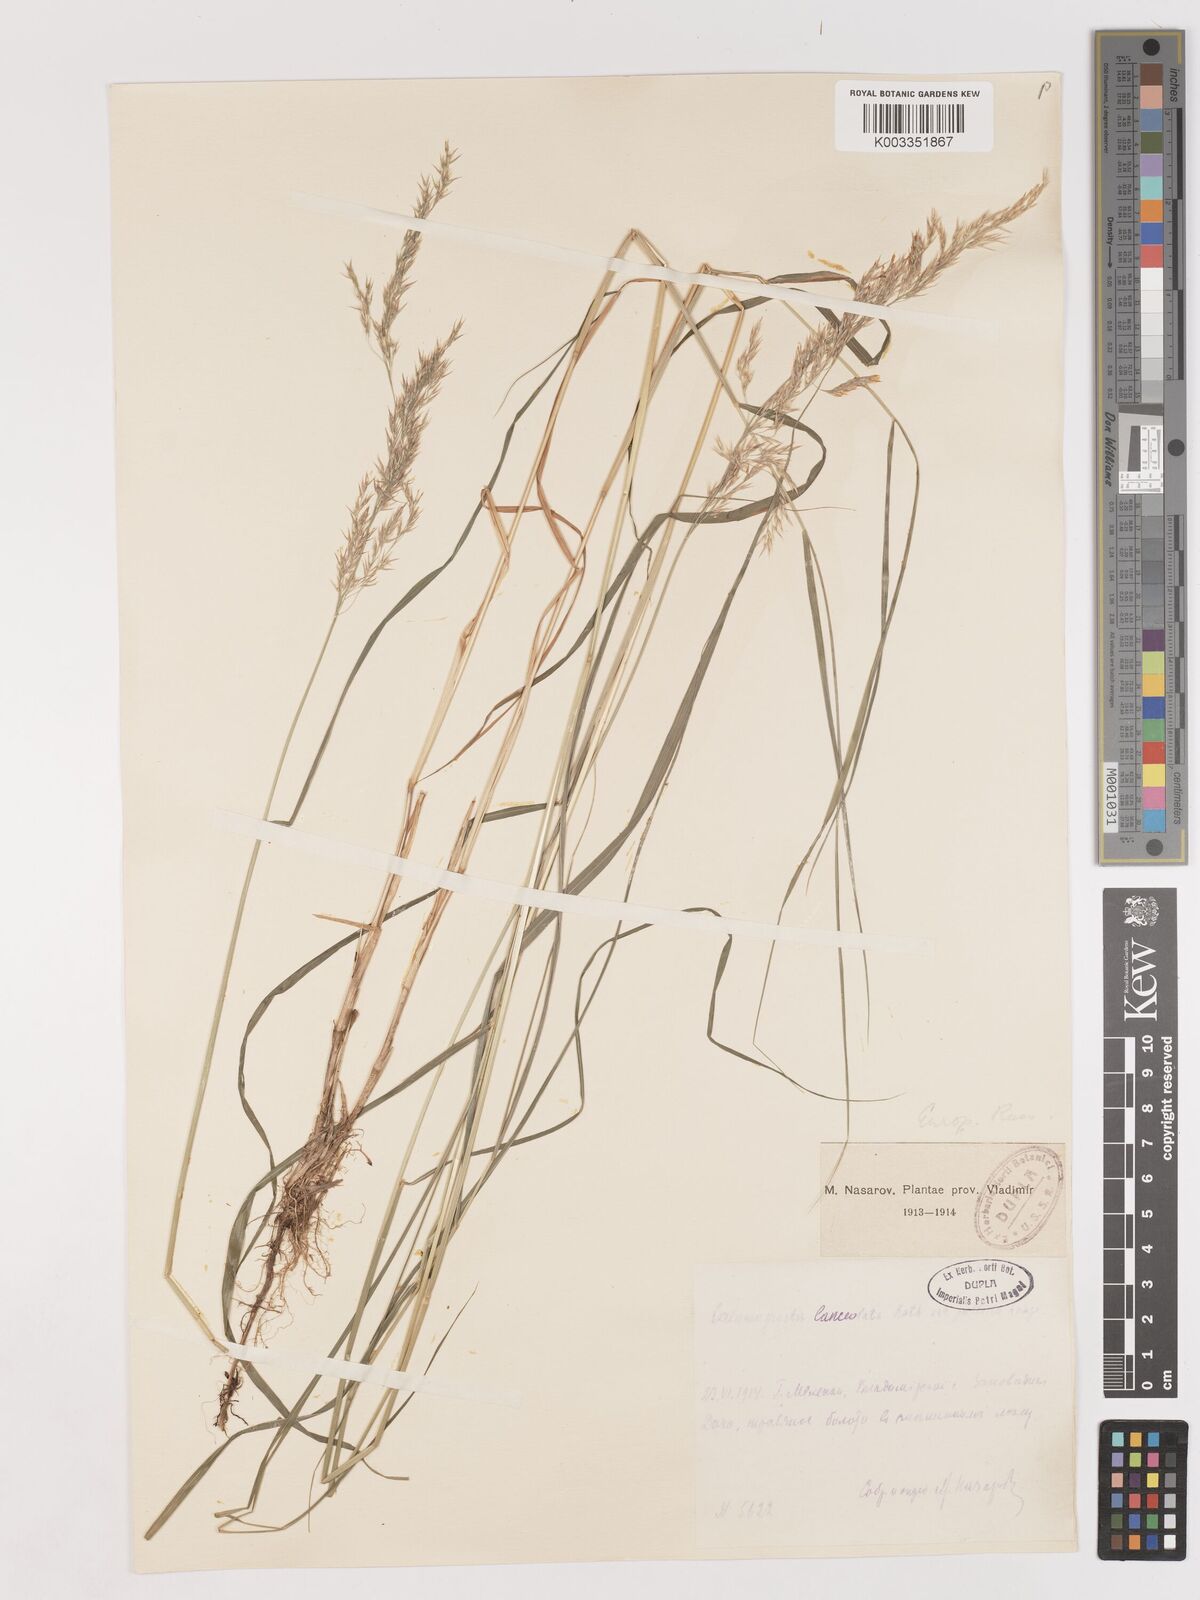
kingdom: Plantae
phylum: Tracheophyta
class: Liliopsida
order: Poales
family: Poaceae
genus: Calamagrostis
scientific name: Calamagrostis canescens
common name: Purple small-reed
